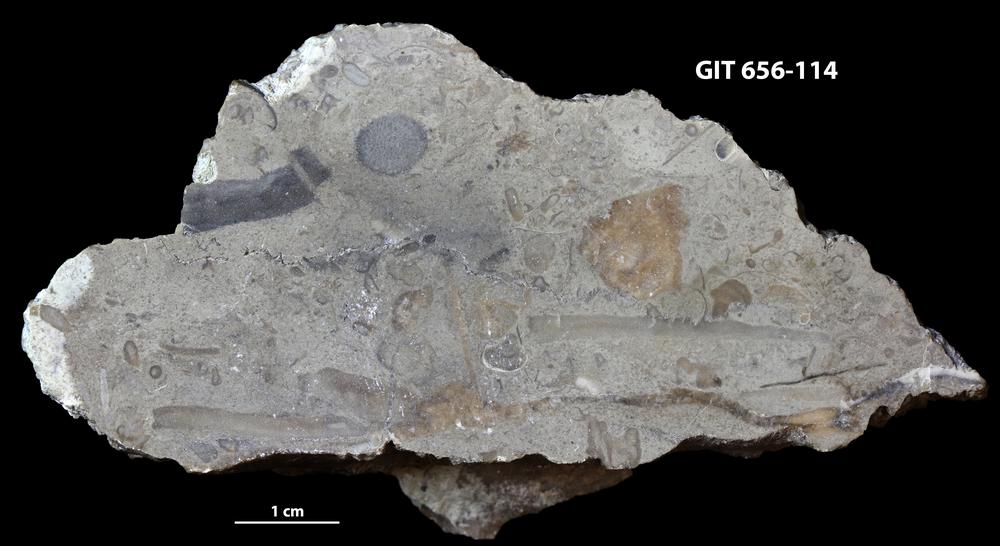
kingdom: Animalia
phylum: Porifera
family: Syringostromellidae
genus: Syringostromella
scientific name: Syringostromella
